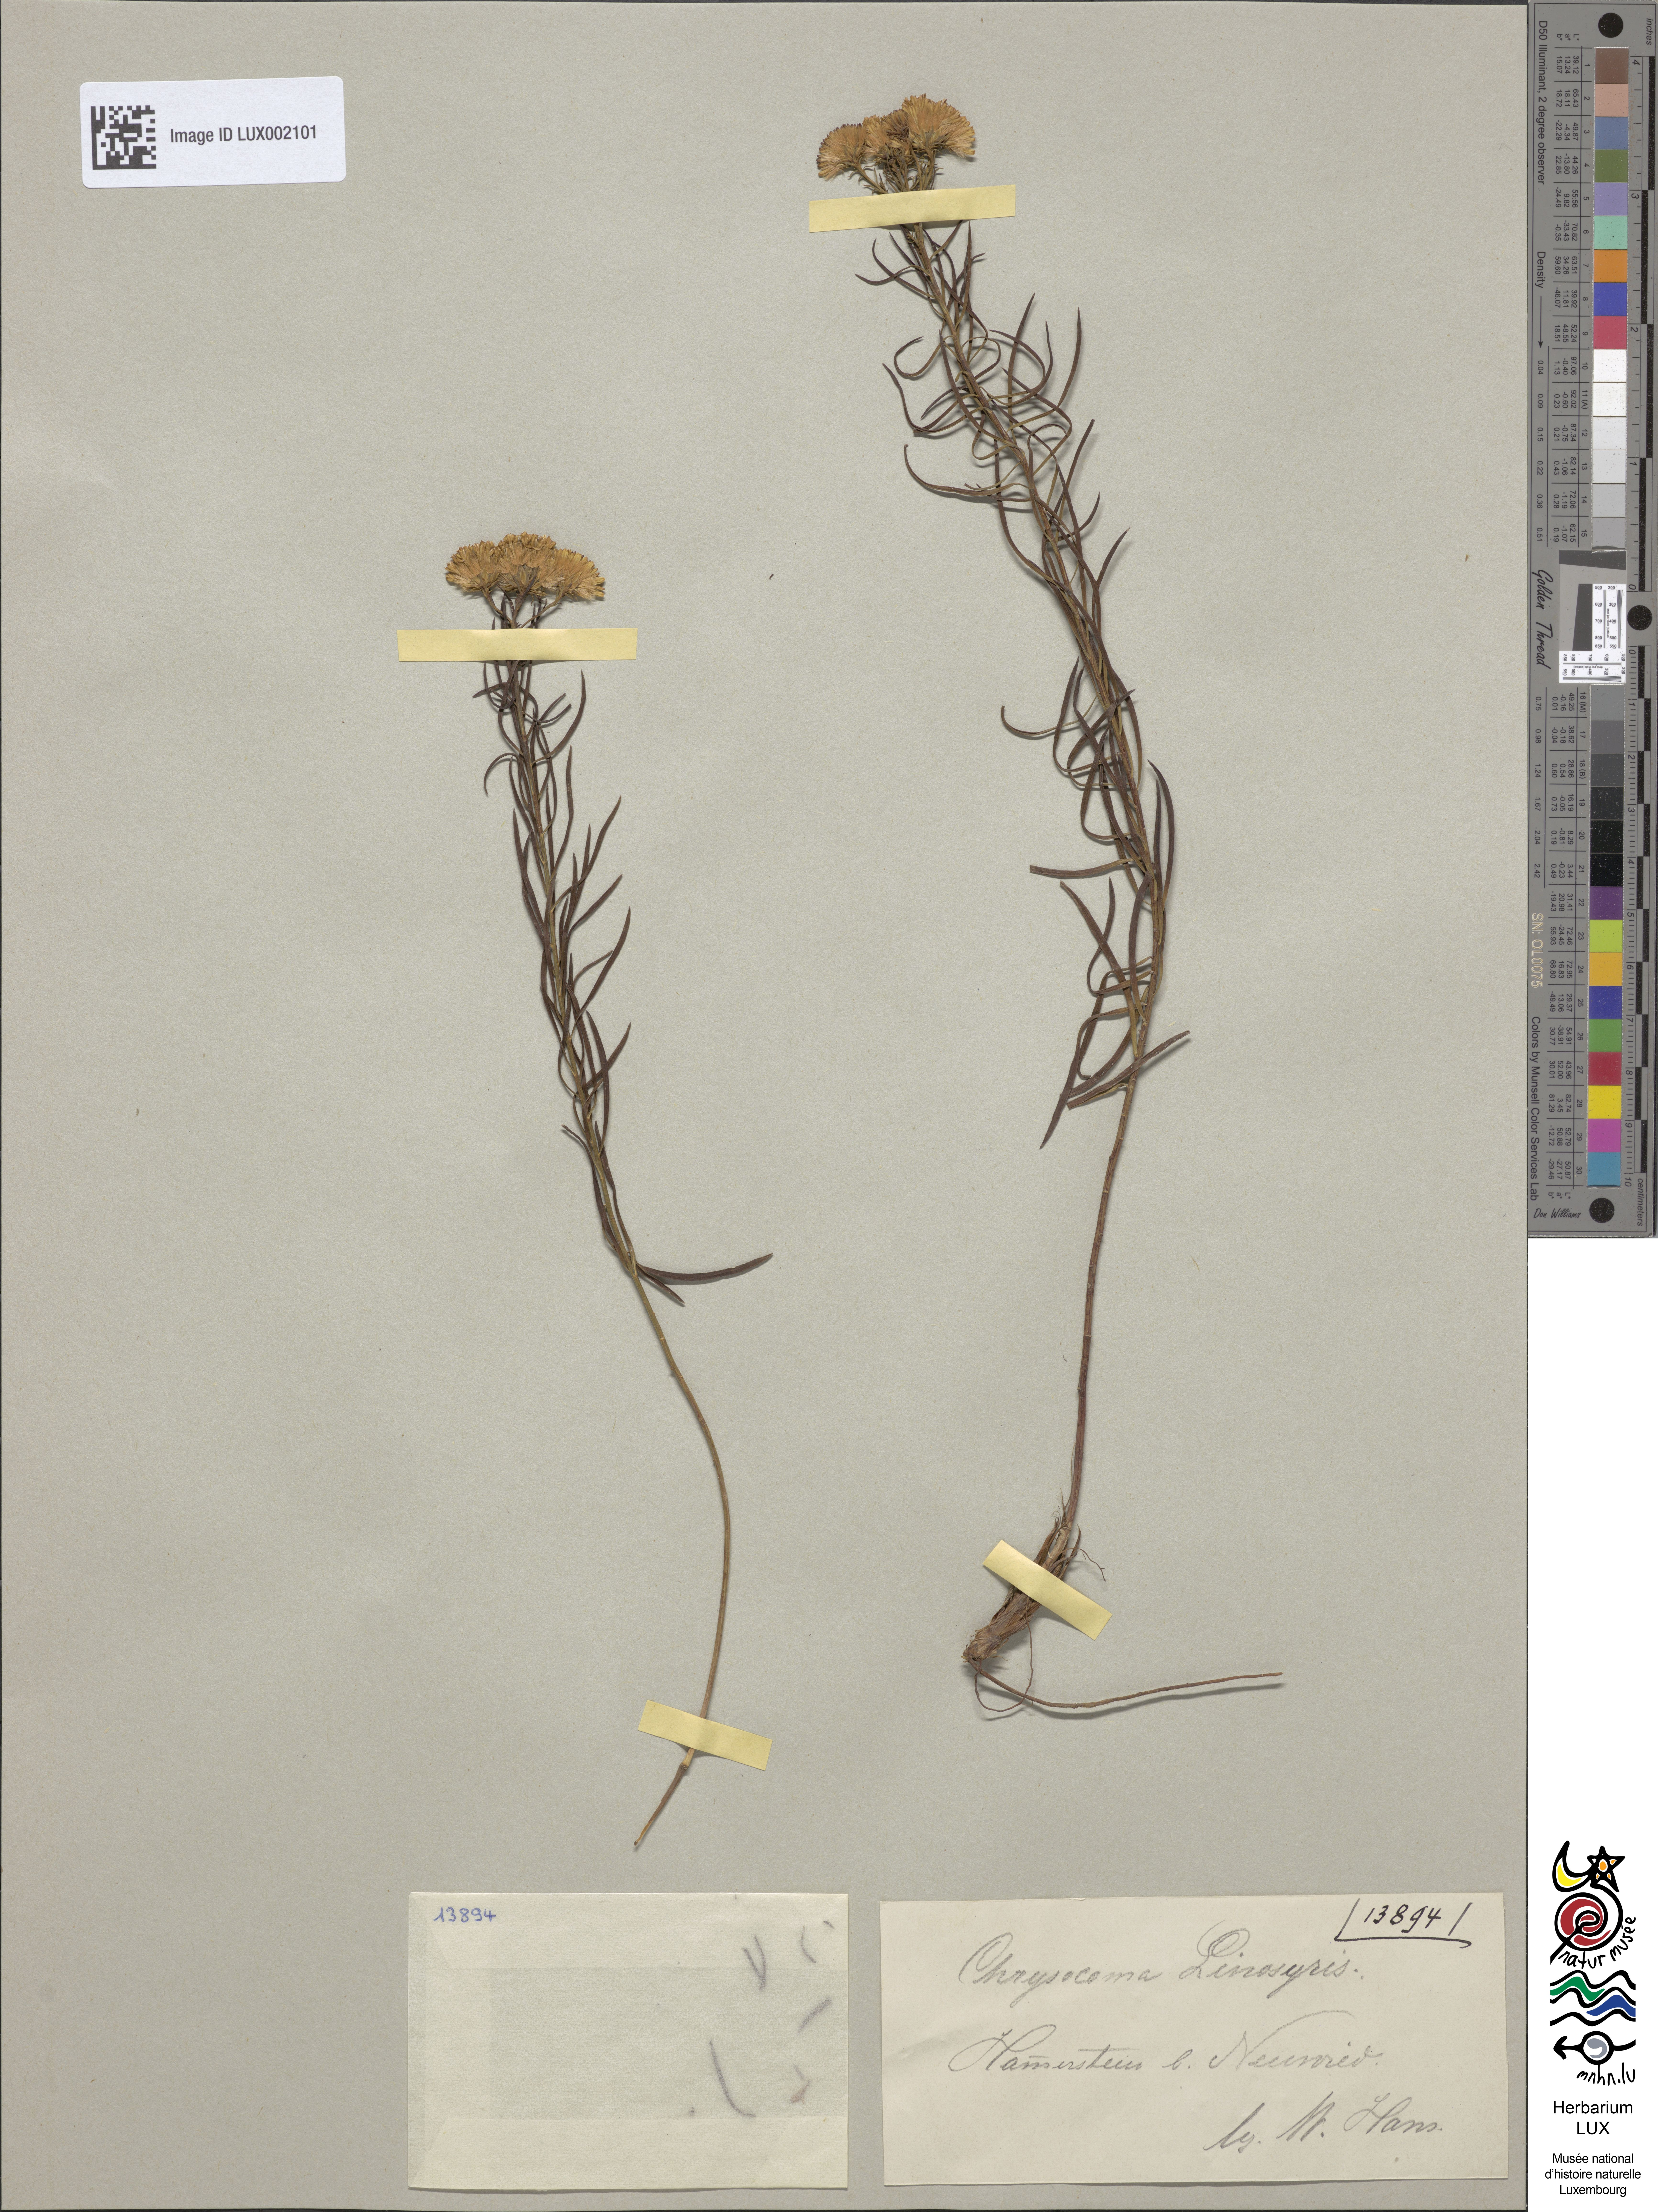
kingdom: Plantae
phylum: Tracheophyta
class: Magnoliopsida
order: Asterales
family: Asteraceae
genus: Galatella
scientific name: Galatella linosyris
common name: Goldilocks aster
